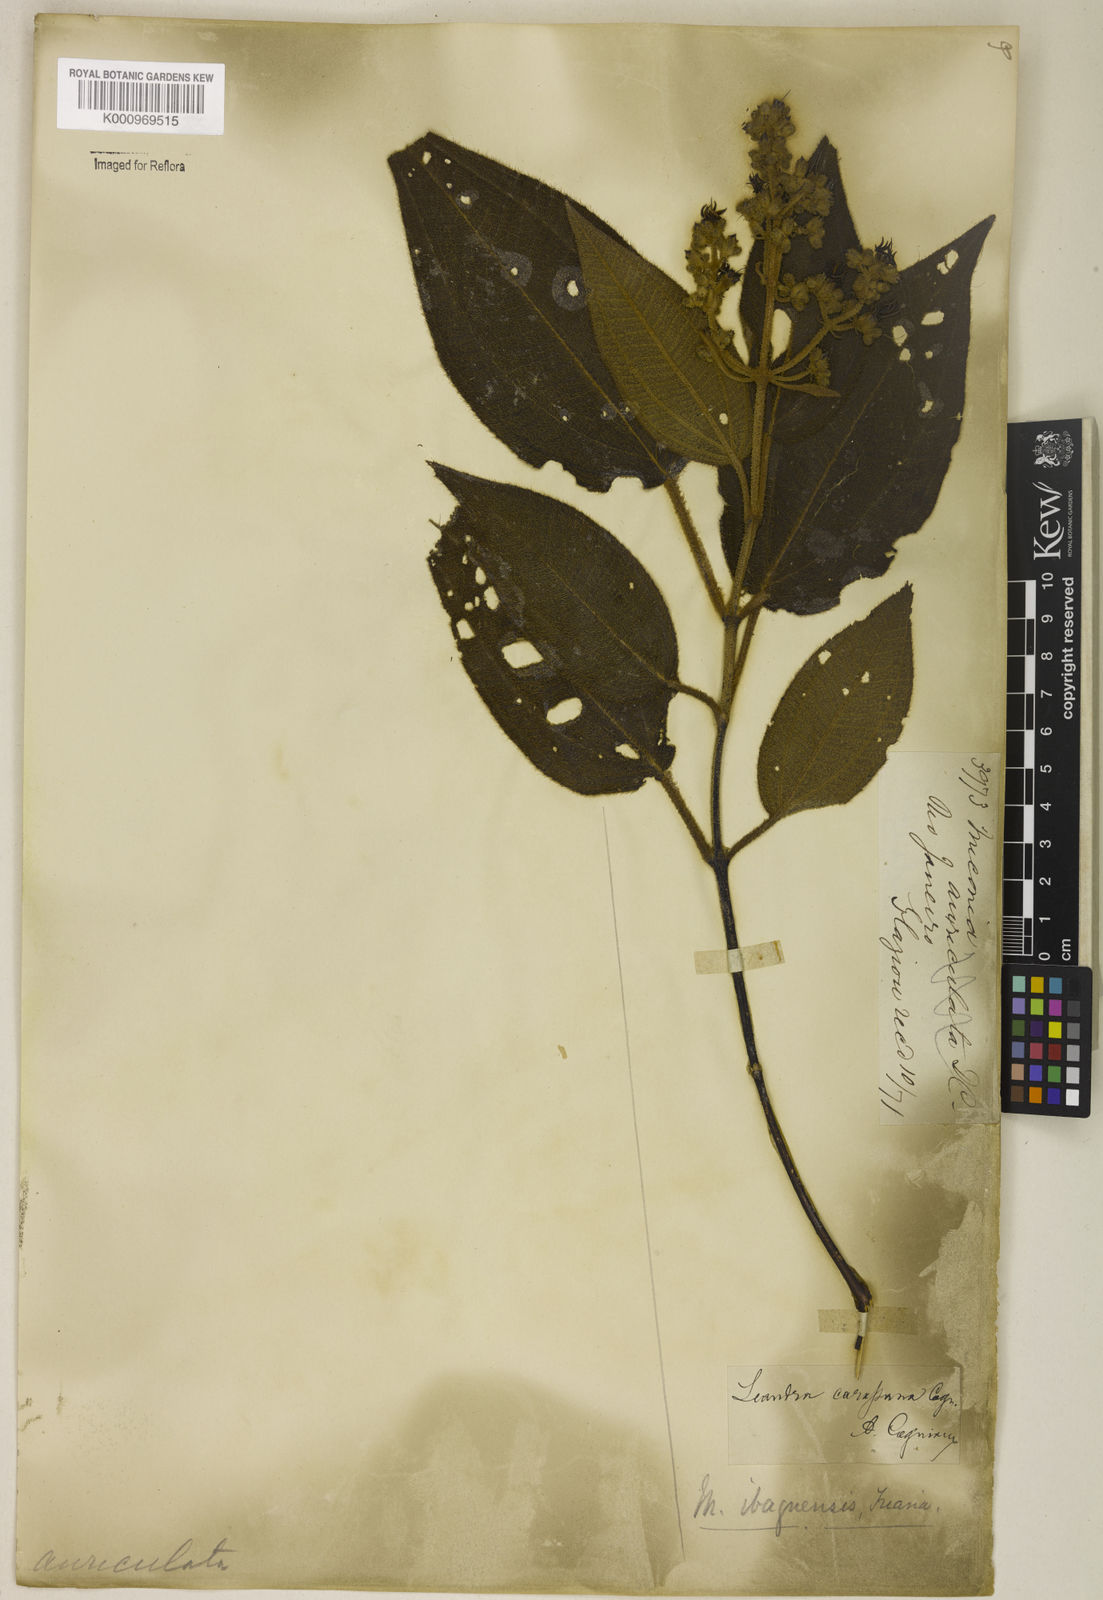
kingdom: Plantae
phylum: Tracheophyta
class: Magnoliopsida
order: Myrtales
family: Melastomataceae
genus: Miconia
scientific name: Miconia sublanata
